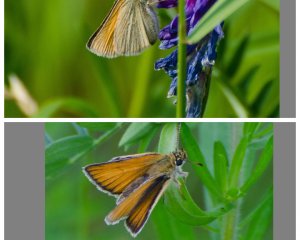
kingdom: Animalia
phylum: Arthropoda
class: Insecta
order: Lepidoptera
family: Hesperiidae
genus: Thymelicus
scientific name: Thymelicus lineola
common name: European Skipper
